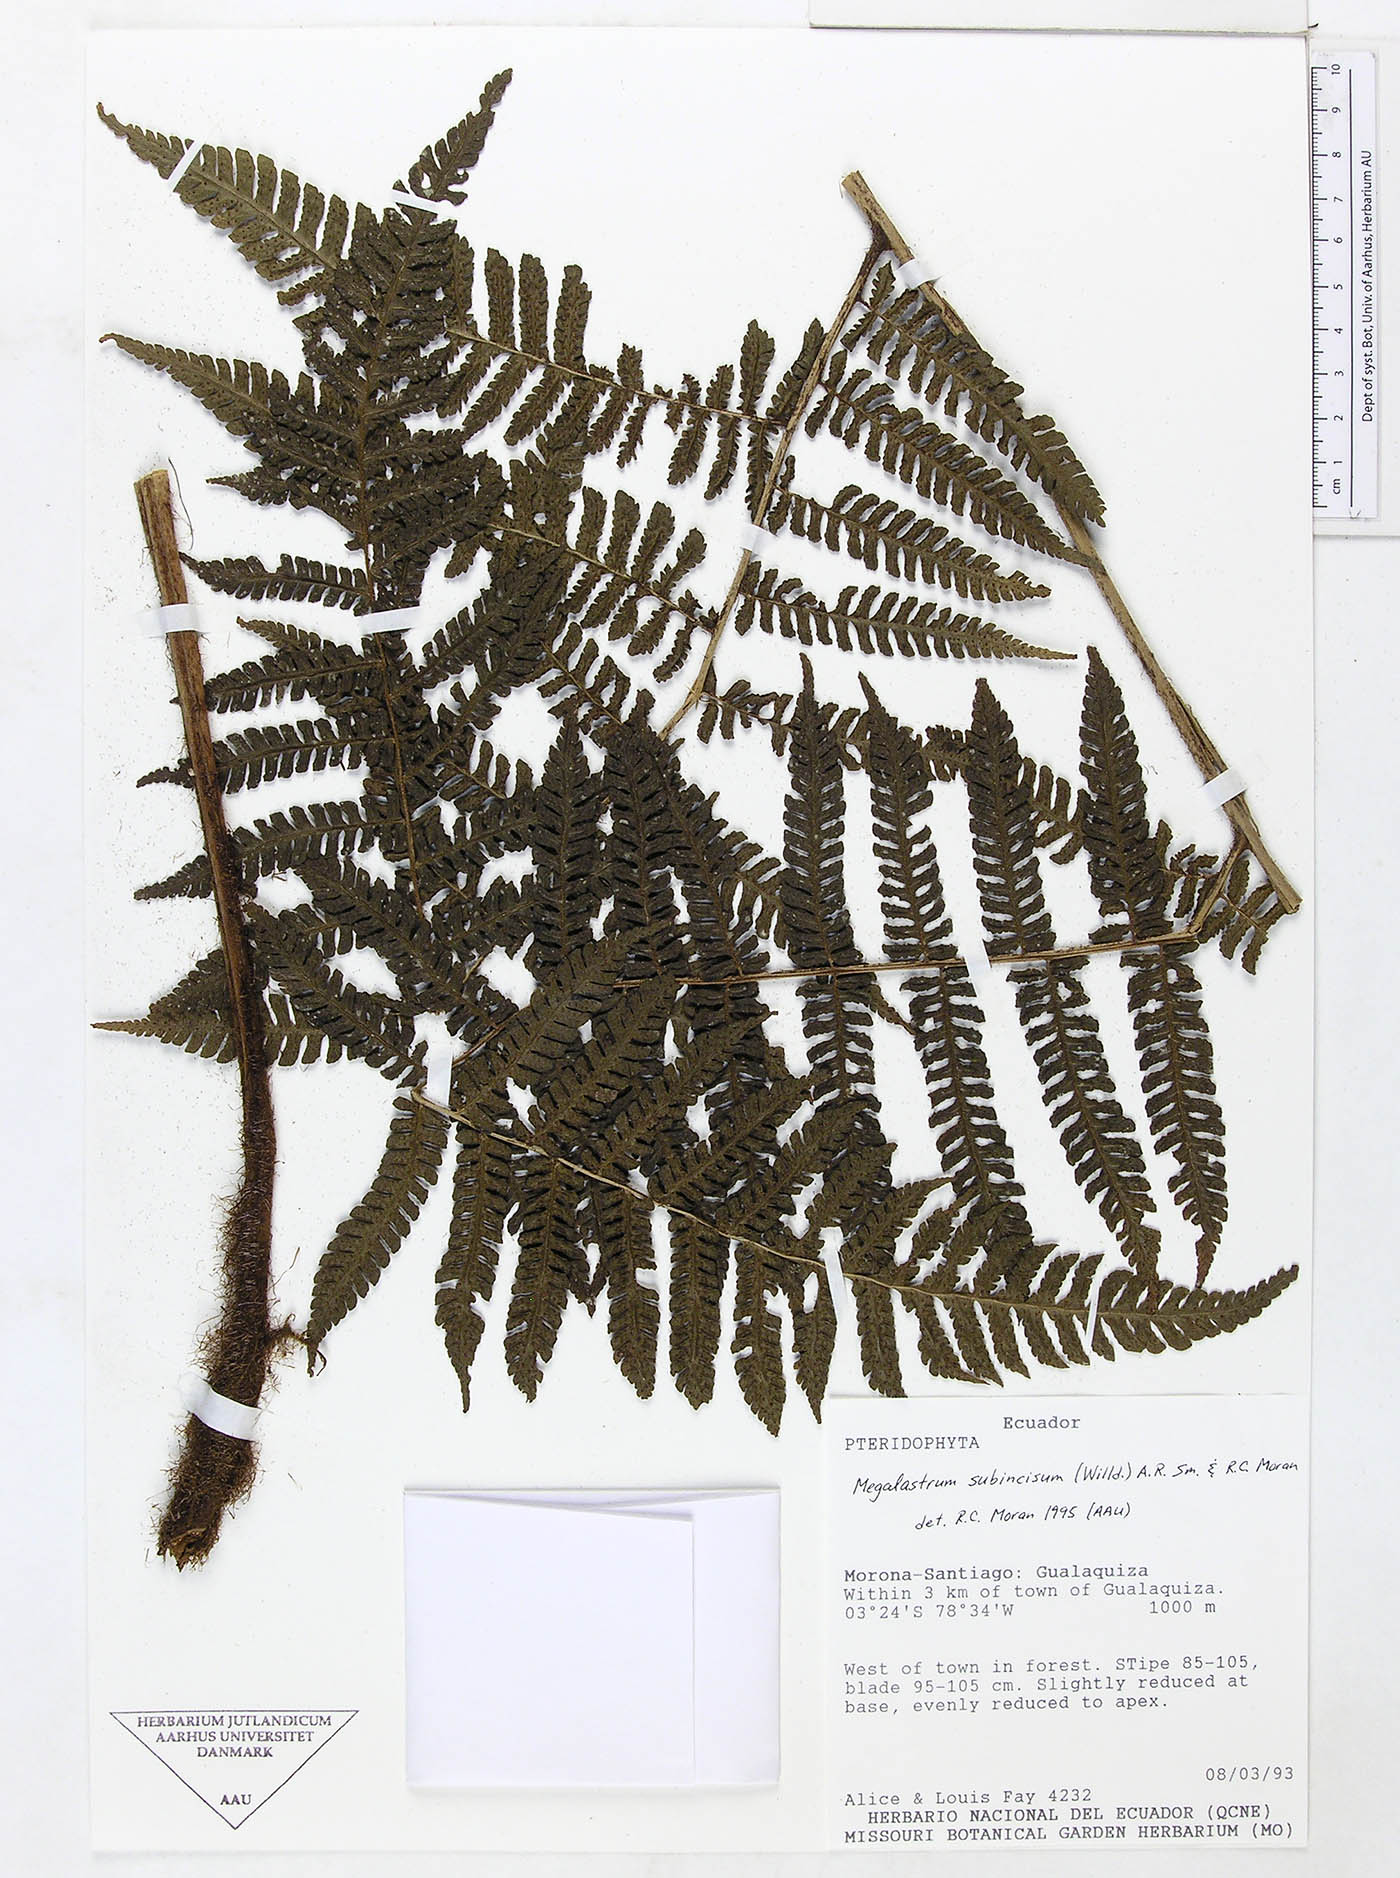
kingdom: Plantae
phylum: Tracheophyta
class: Polypodiopsida
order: Polypodiales
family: Dryopteridaceae
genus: Megalastrum
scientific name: Megalastrum praetermissum
